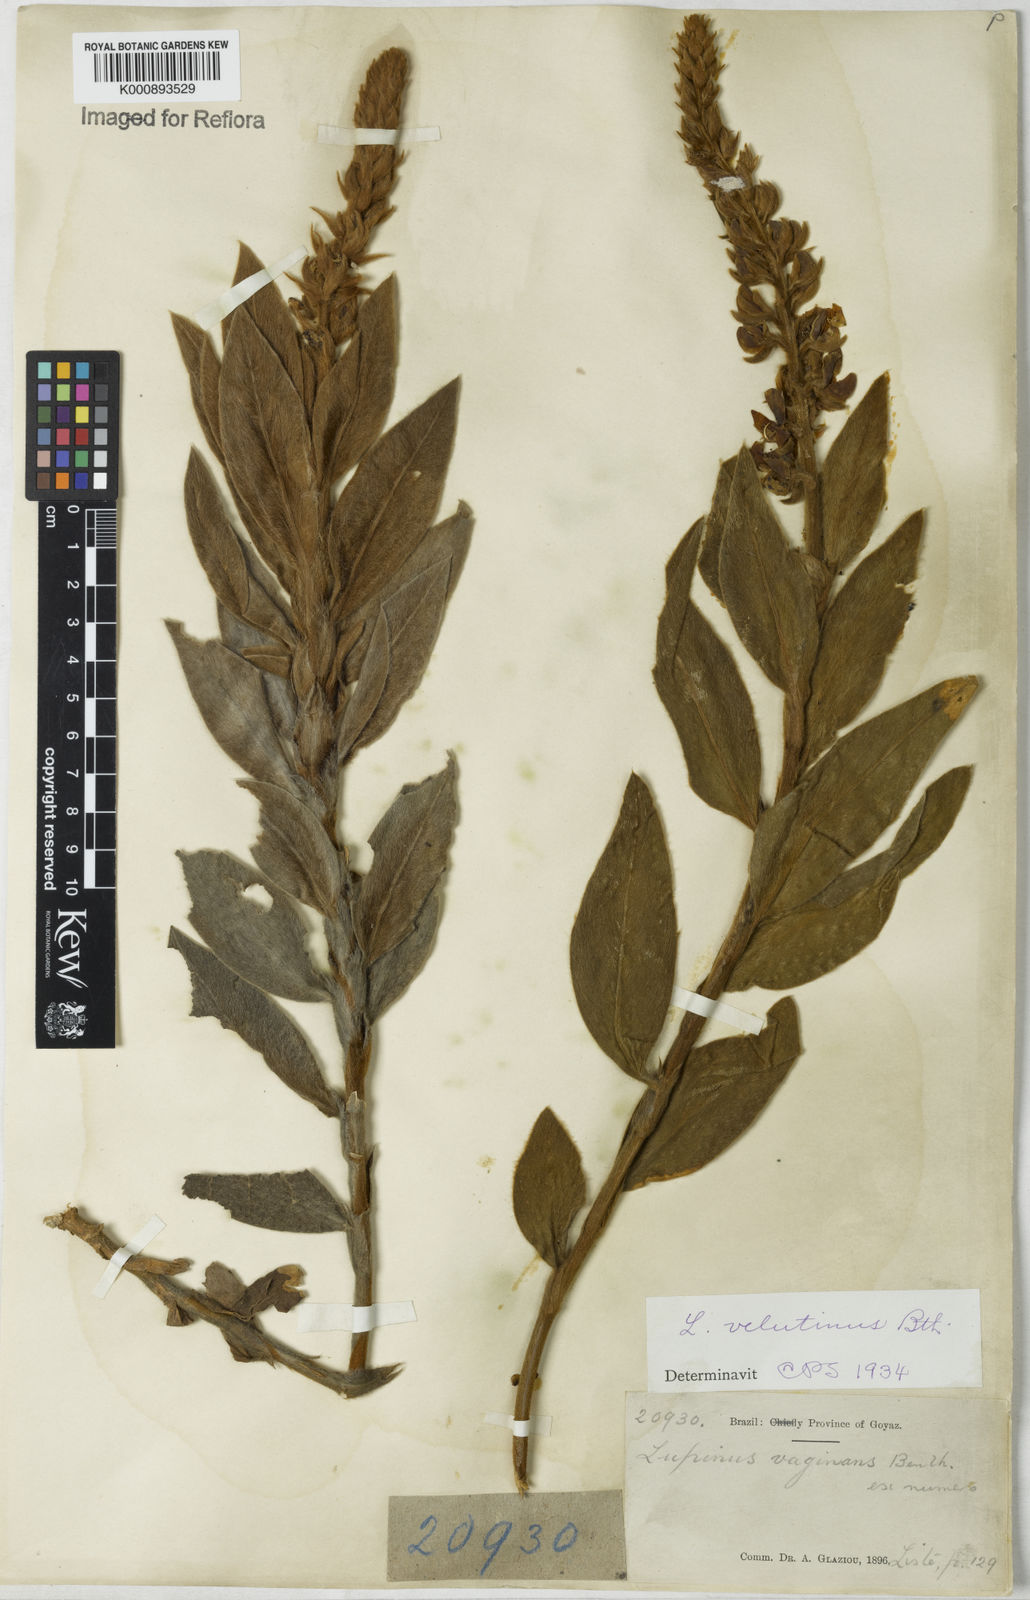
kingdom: Plantae
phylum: Tracheophyta
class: Magnoliopsida
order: Fabales
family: Fabaceae
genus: Lupinus
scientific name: Lupinus velutinus
